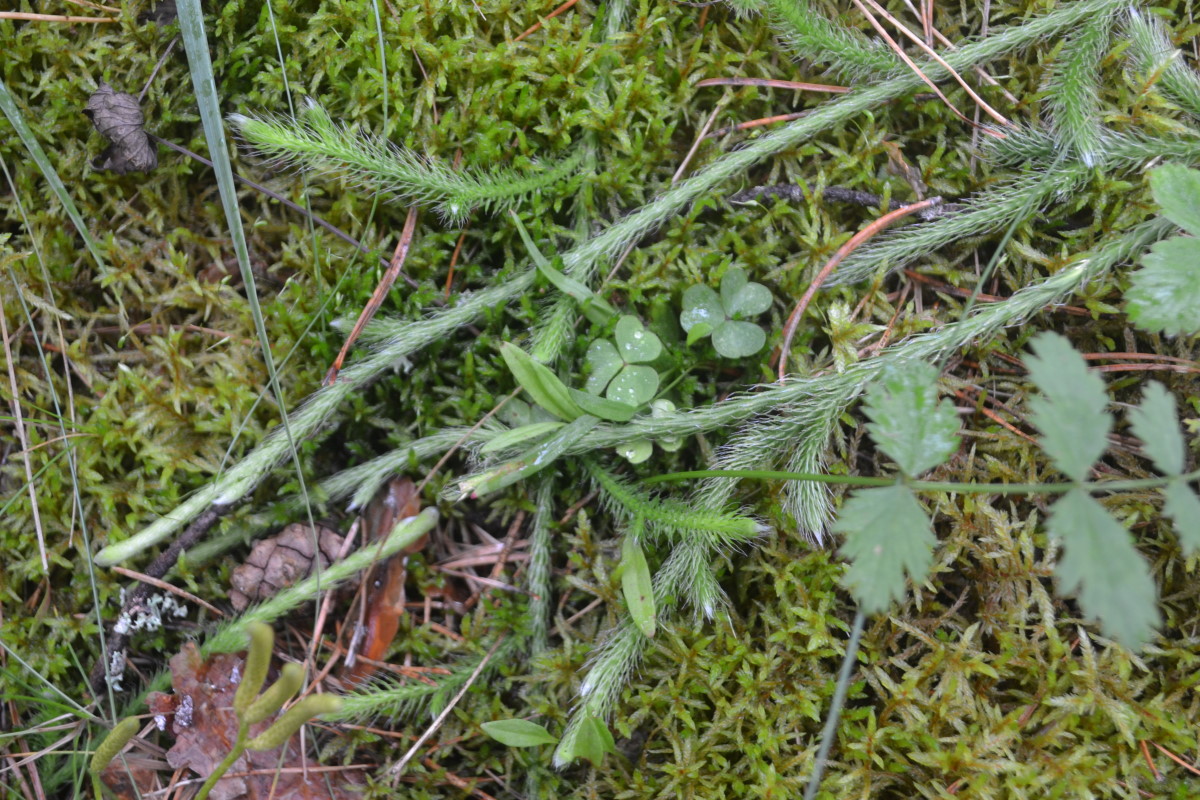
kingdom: Plantae
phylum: Tracheophyta
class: Lycopodiopsida
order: Lycopodiales
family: Lycopodiaceae
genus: Lycopodium
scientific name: Lycopodium clavatum
